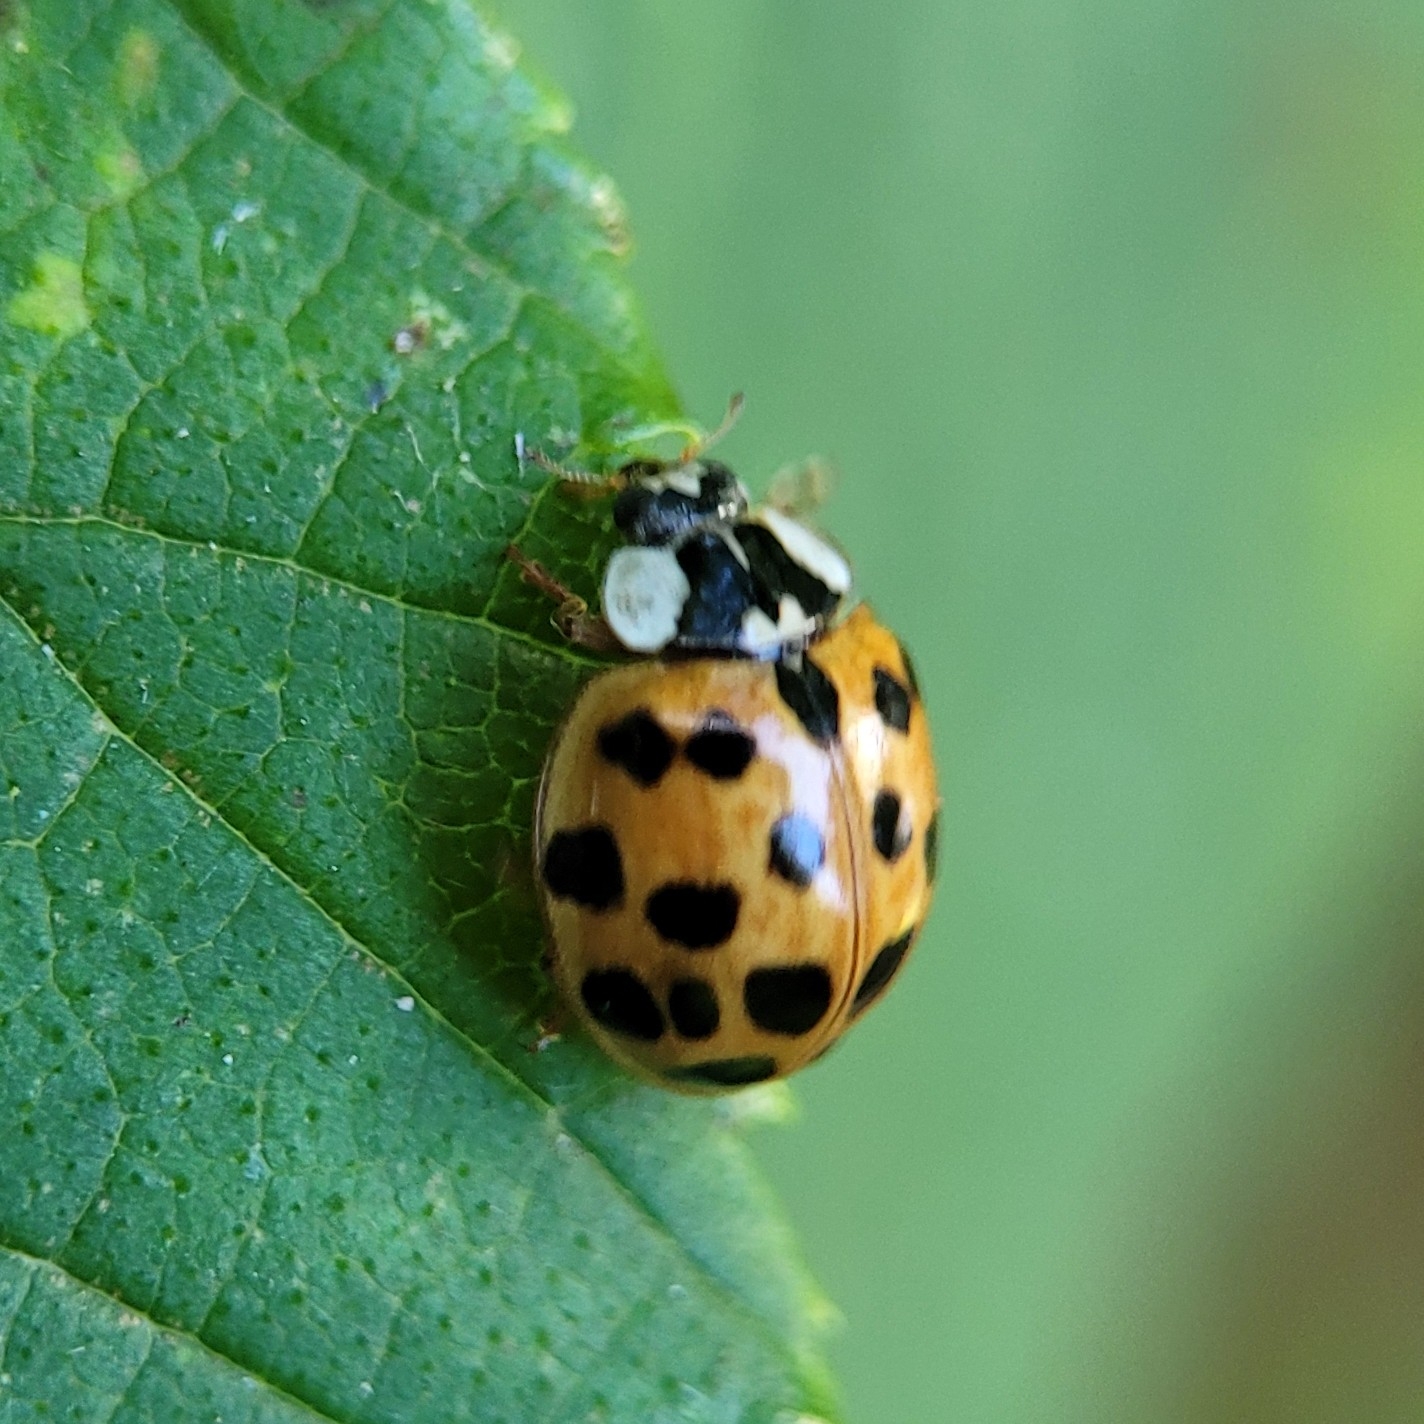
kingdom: Animalia
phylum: Arthropoda
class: Insecta
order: Coleoptera
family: Coccinellidae
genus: Harmonia
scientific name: Harmonia axyridis
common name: Harlekinmariehøne
